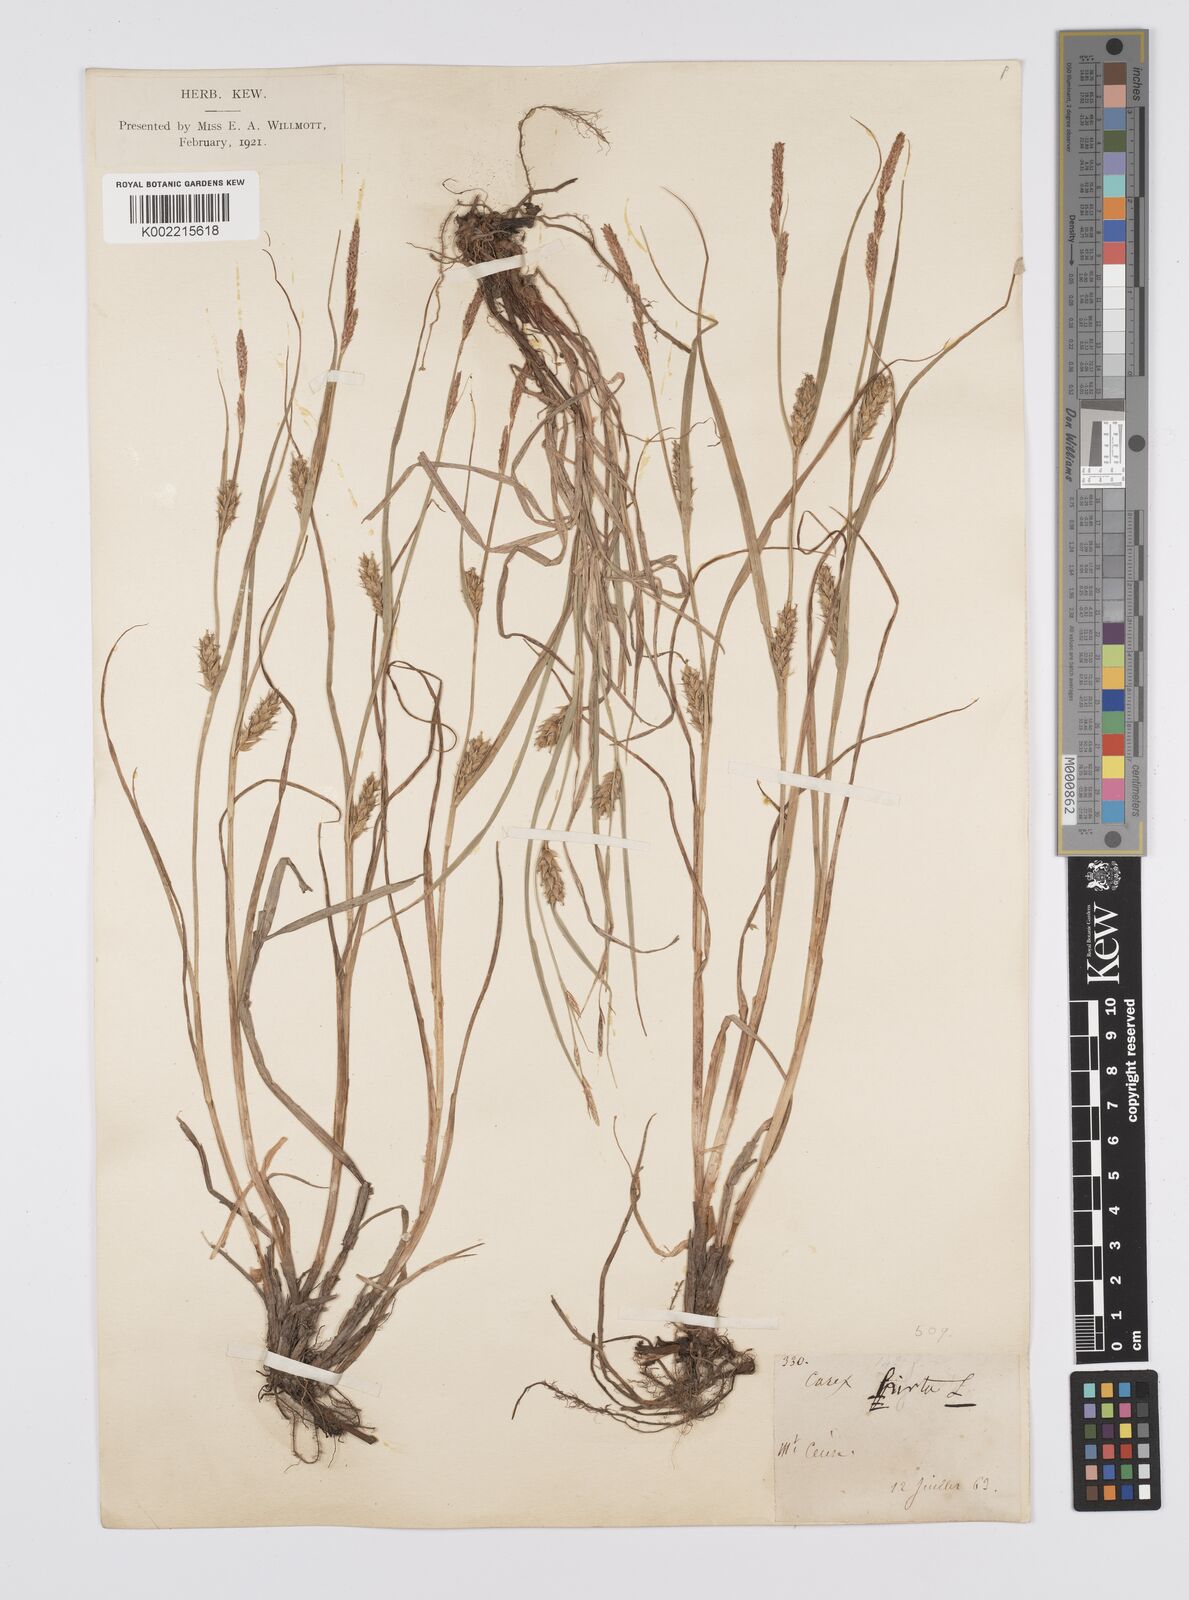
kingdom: Plantae
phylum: Tracheophyta
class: Liliopsida
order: Poales
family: Cyperaceae
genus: Carex
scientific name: Carex hirta
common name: Hairy sedge
